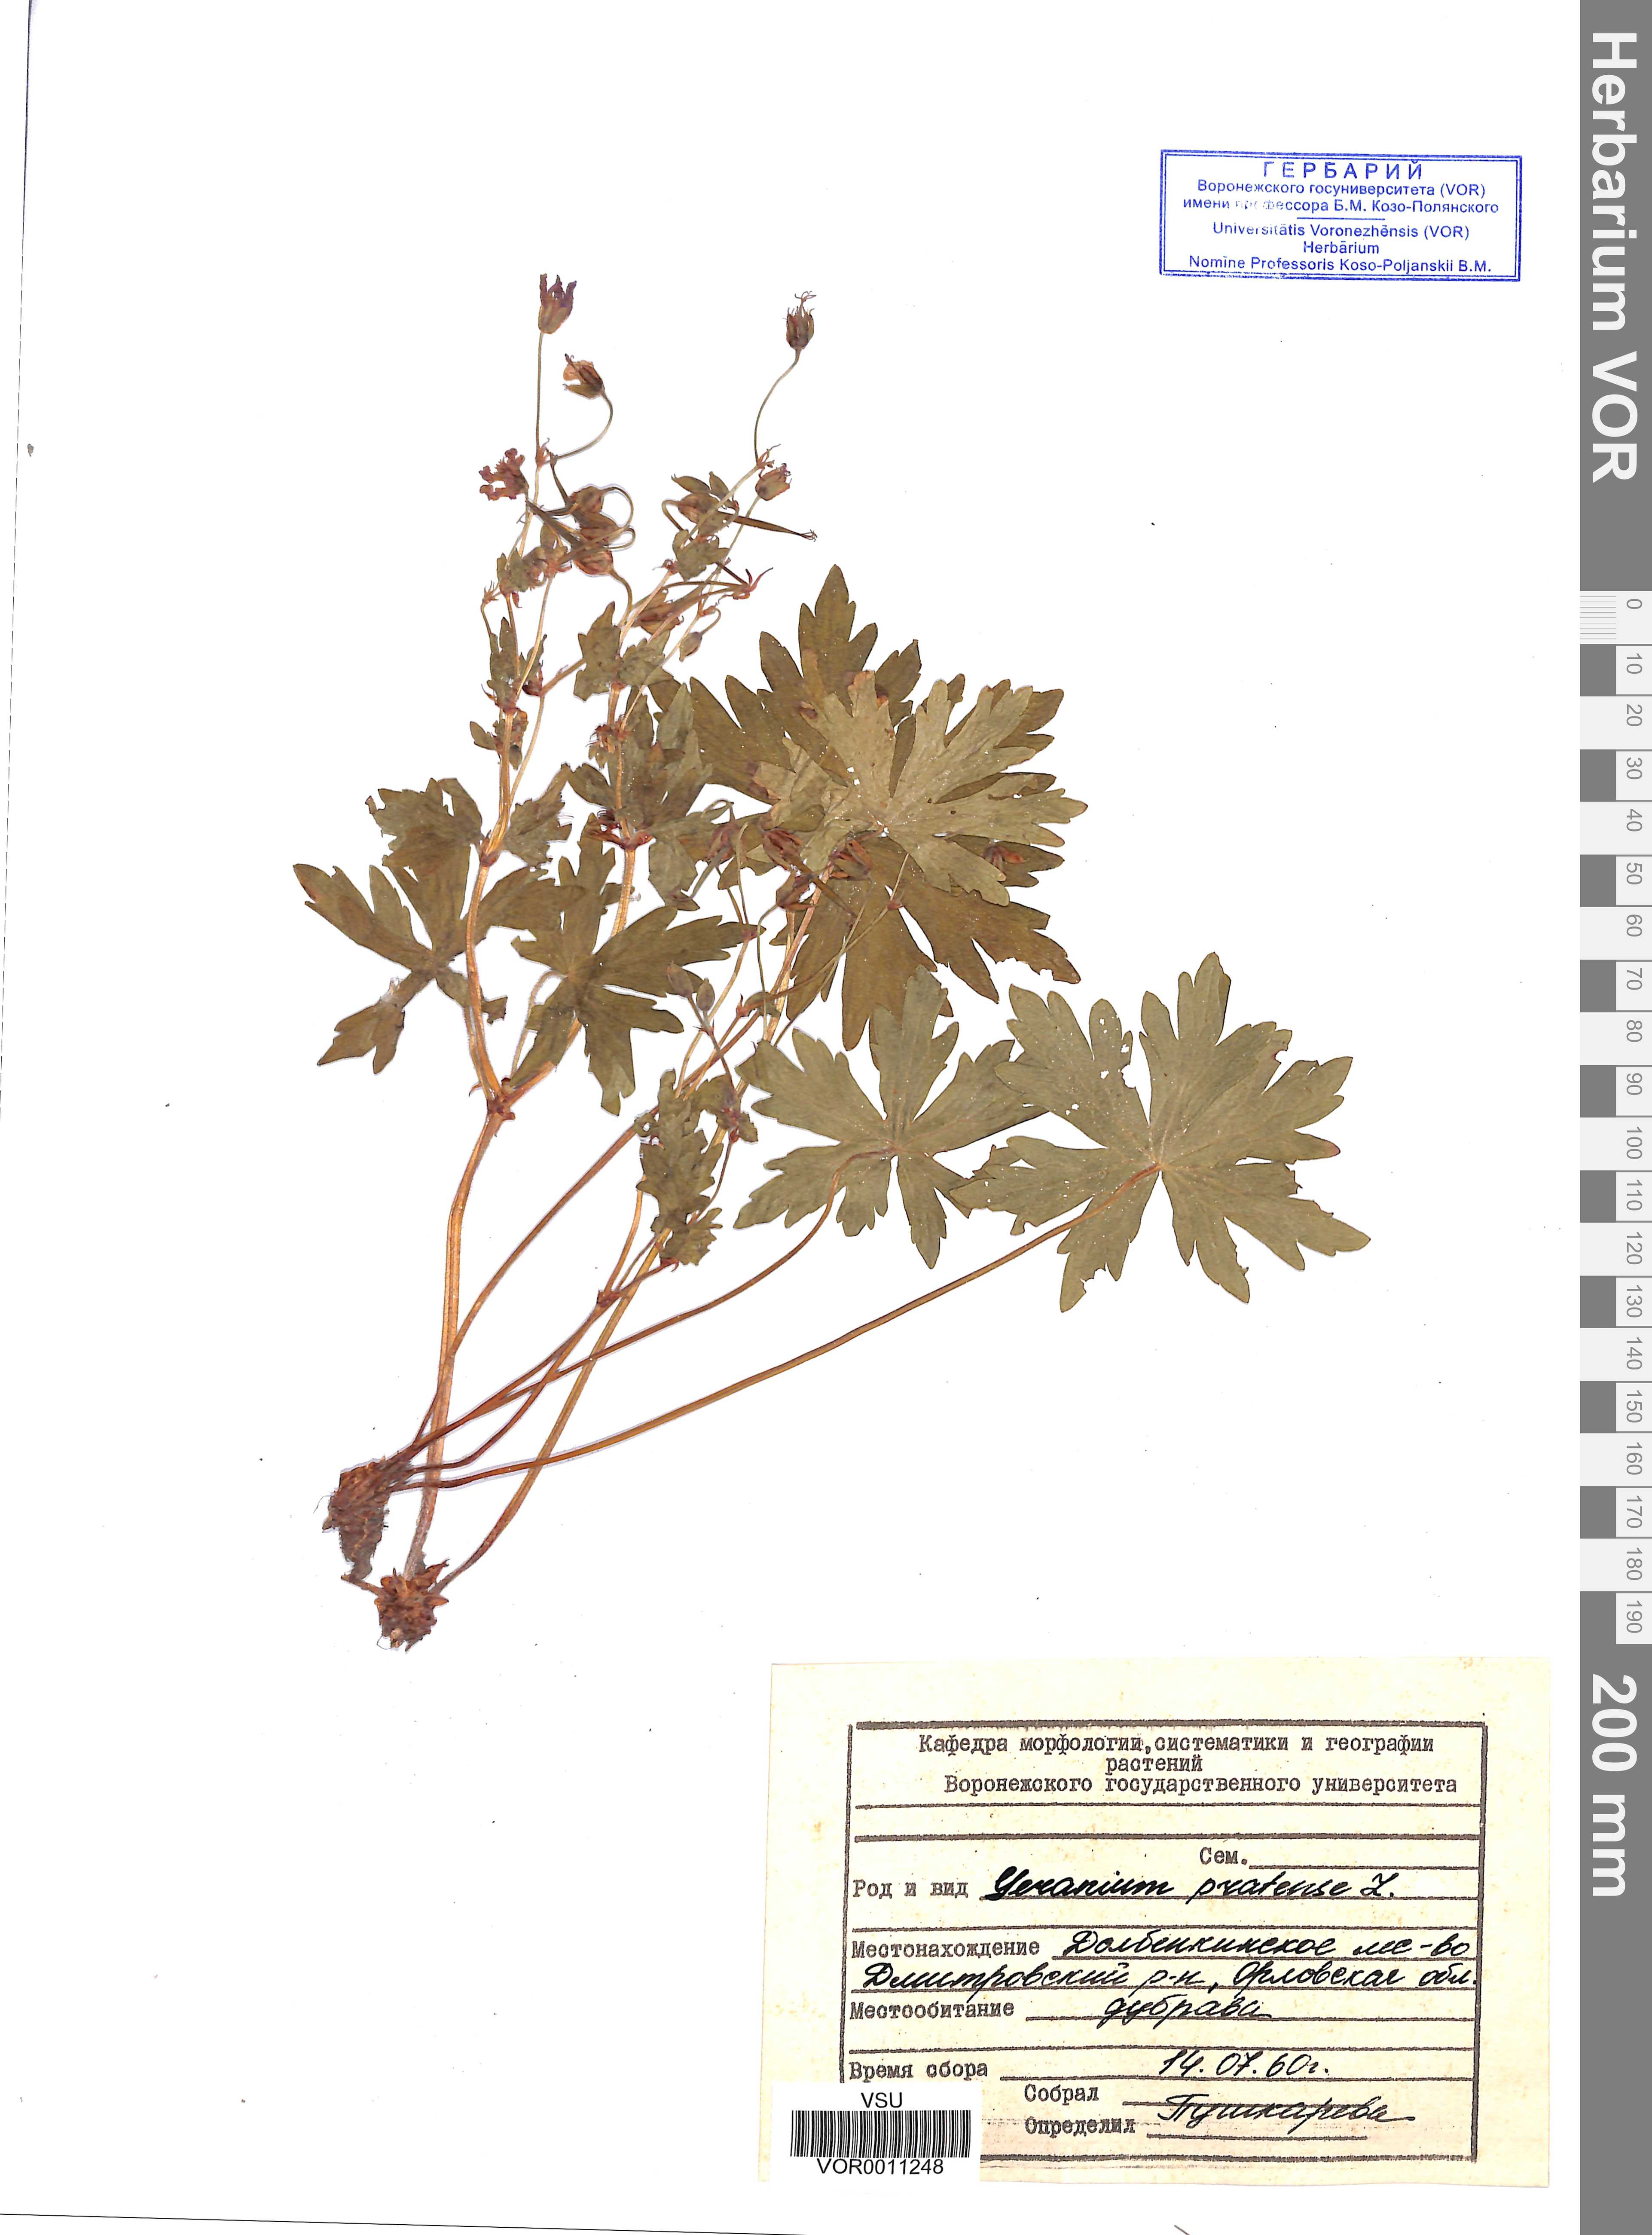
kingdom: Plantae
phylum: Tracheophyta
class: Magnoliopsida
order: Geraniales
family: Geraniaceae
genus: Geranium
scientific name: Geranium pratense
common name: Meadow crane's-bill
